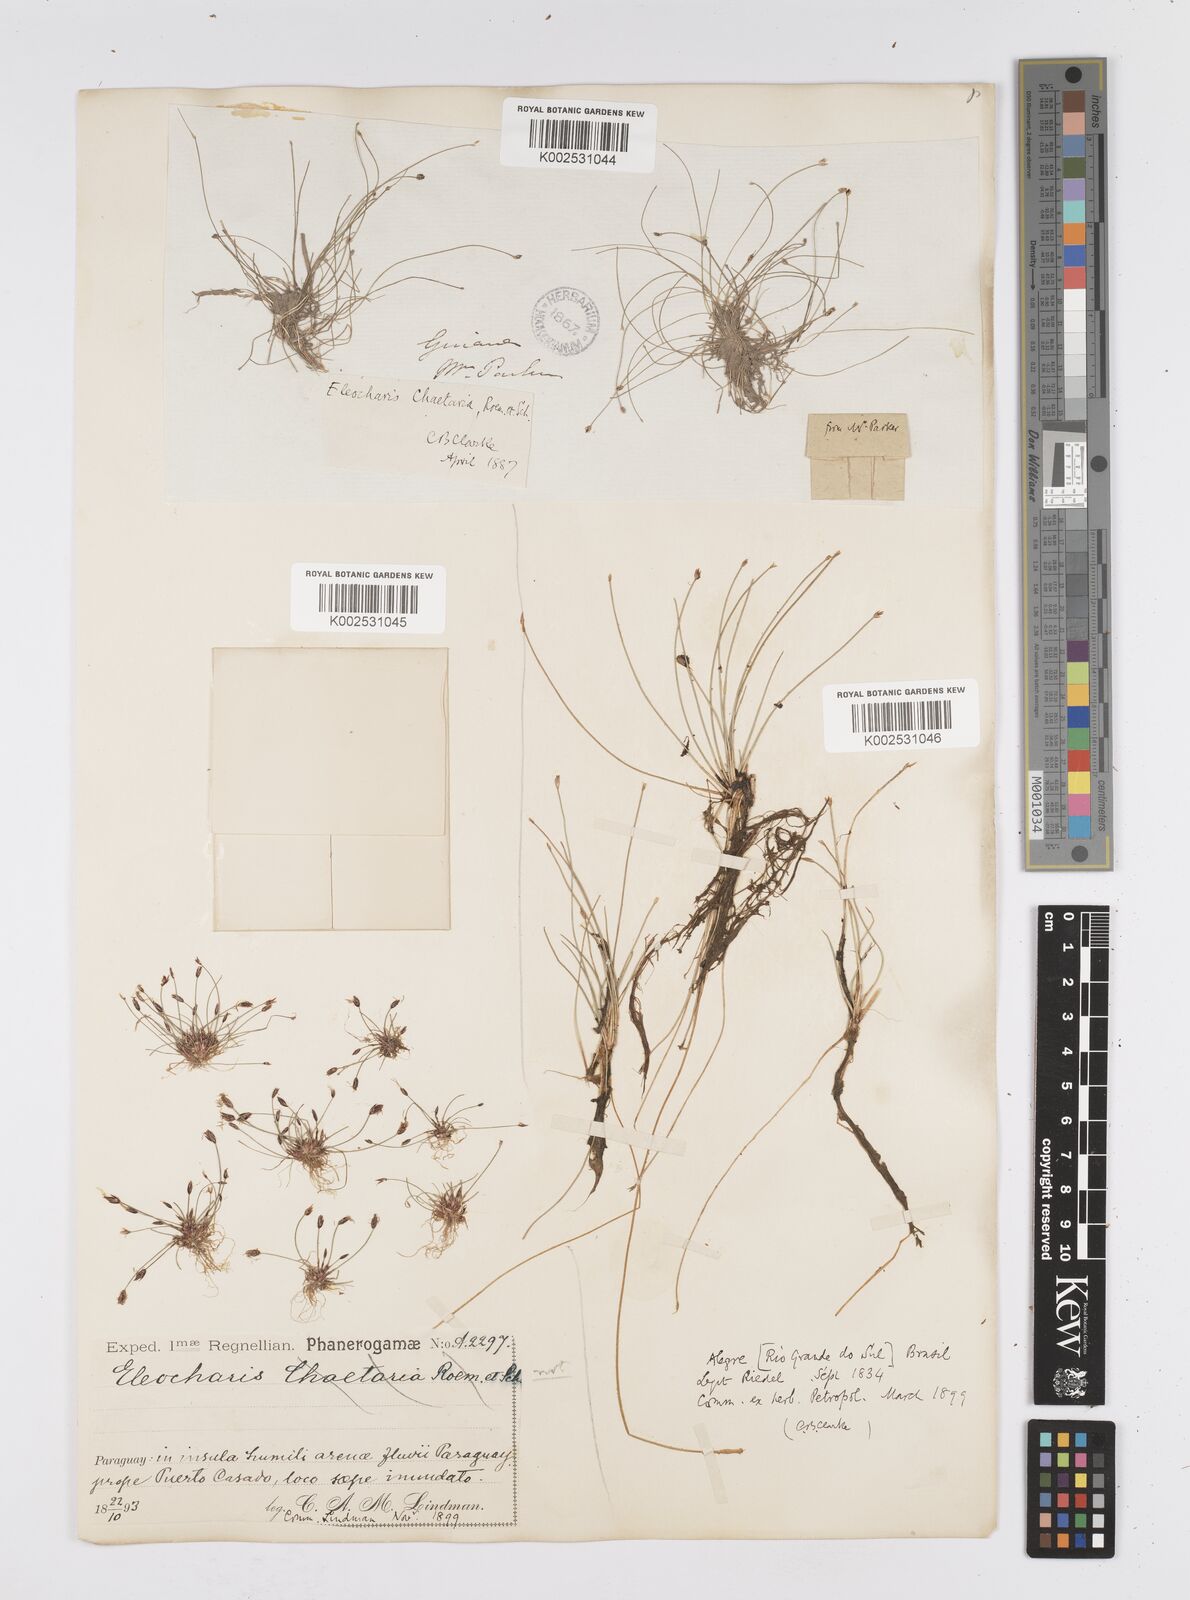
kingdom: Plantae
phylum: Tracheophyta
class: Liliopsida
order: Poales
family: Cyperaceae
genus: Eleocharis
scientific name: Eleocharis retroflexa
